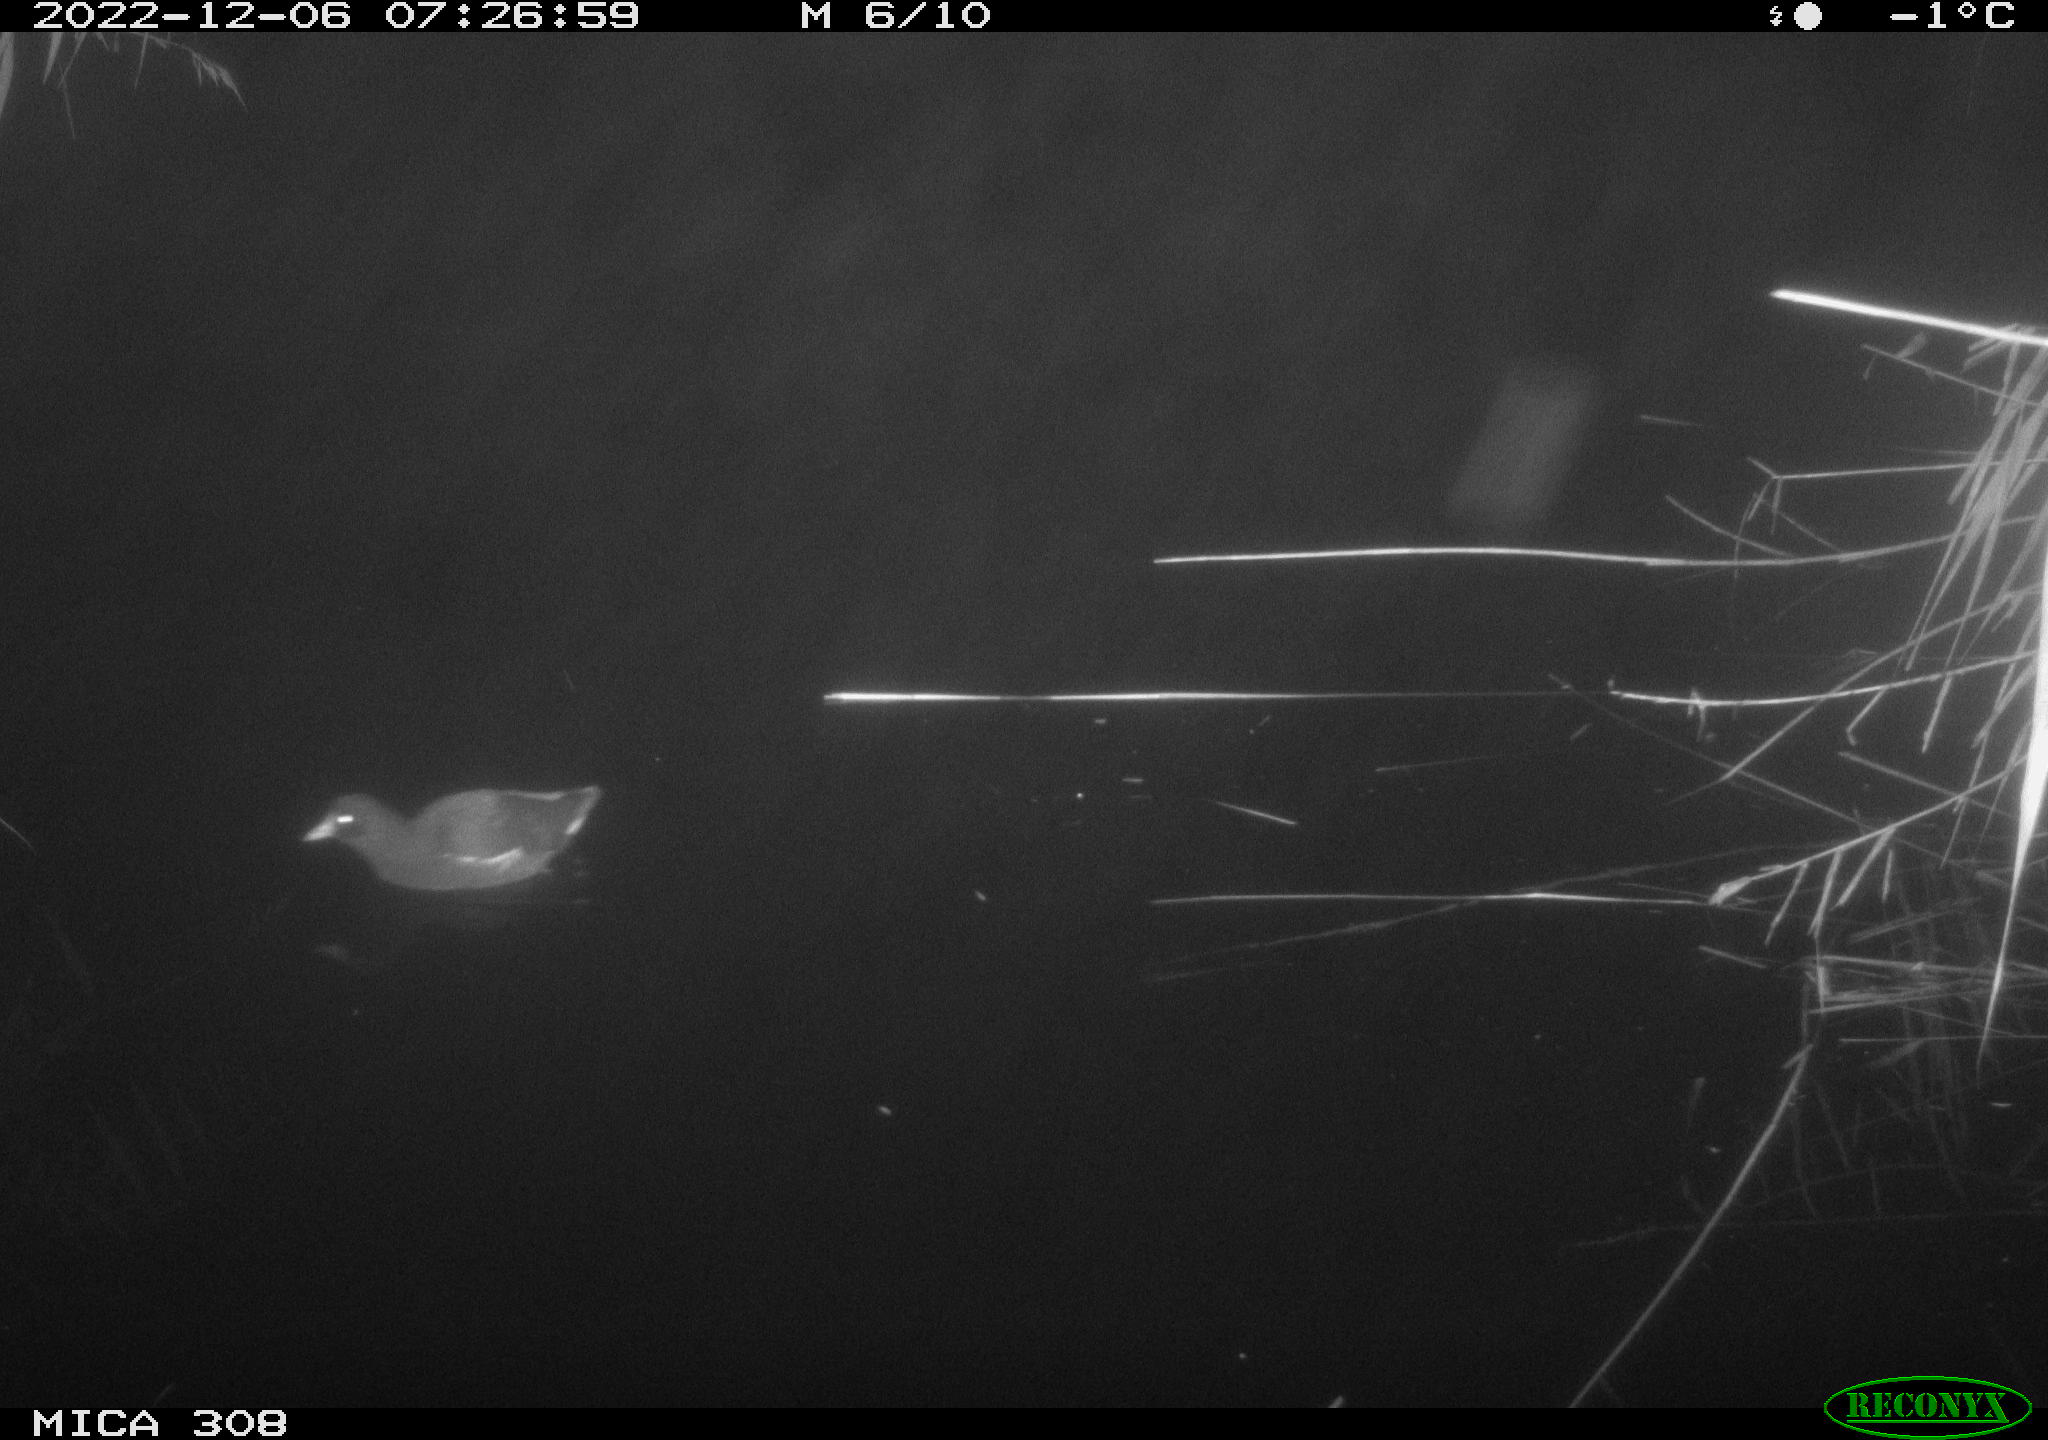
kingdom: Animalia
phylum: Chordata
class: Aves
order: Gruiformes
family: Rallidae
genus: Gallinula
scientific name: Gallinula chloropus
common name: Common moorhen
